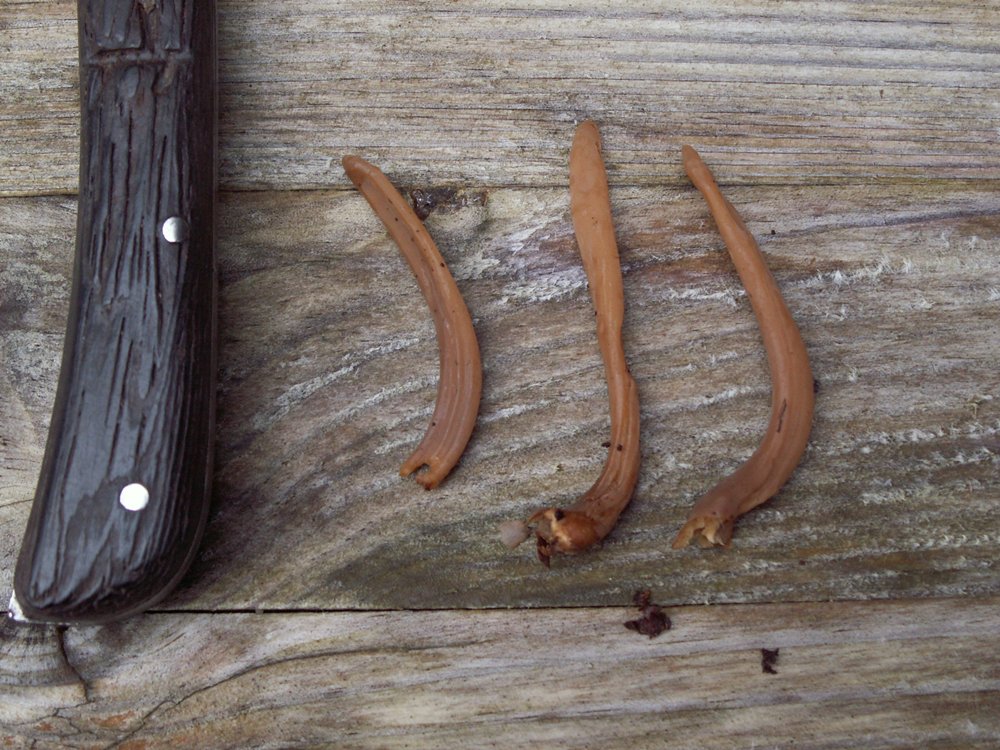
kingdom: Fungi
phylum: Basidiomycota
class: Agaricomycetes
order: Agaricales
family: Typhulaceae
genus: Typhula
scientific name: Typhula fistulosa
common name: pibet rørkølle
